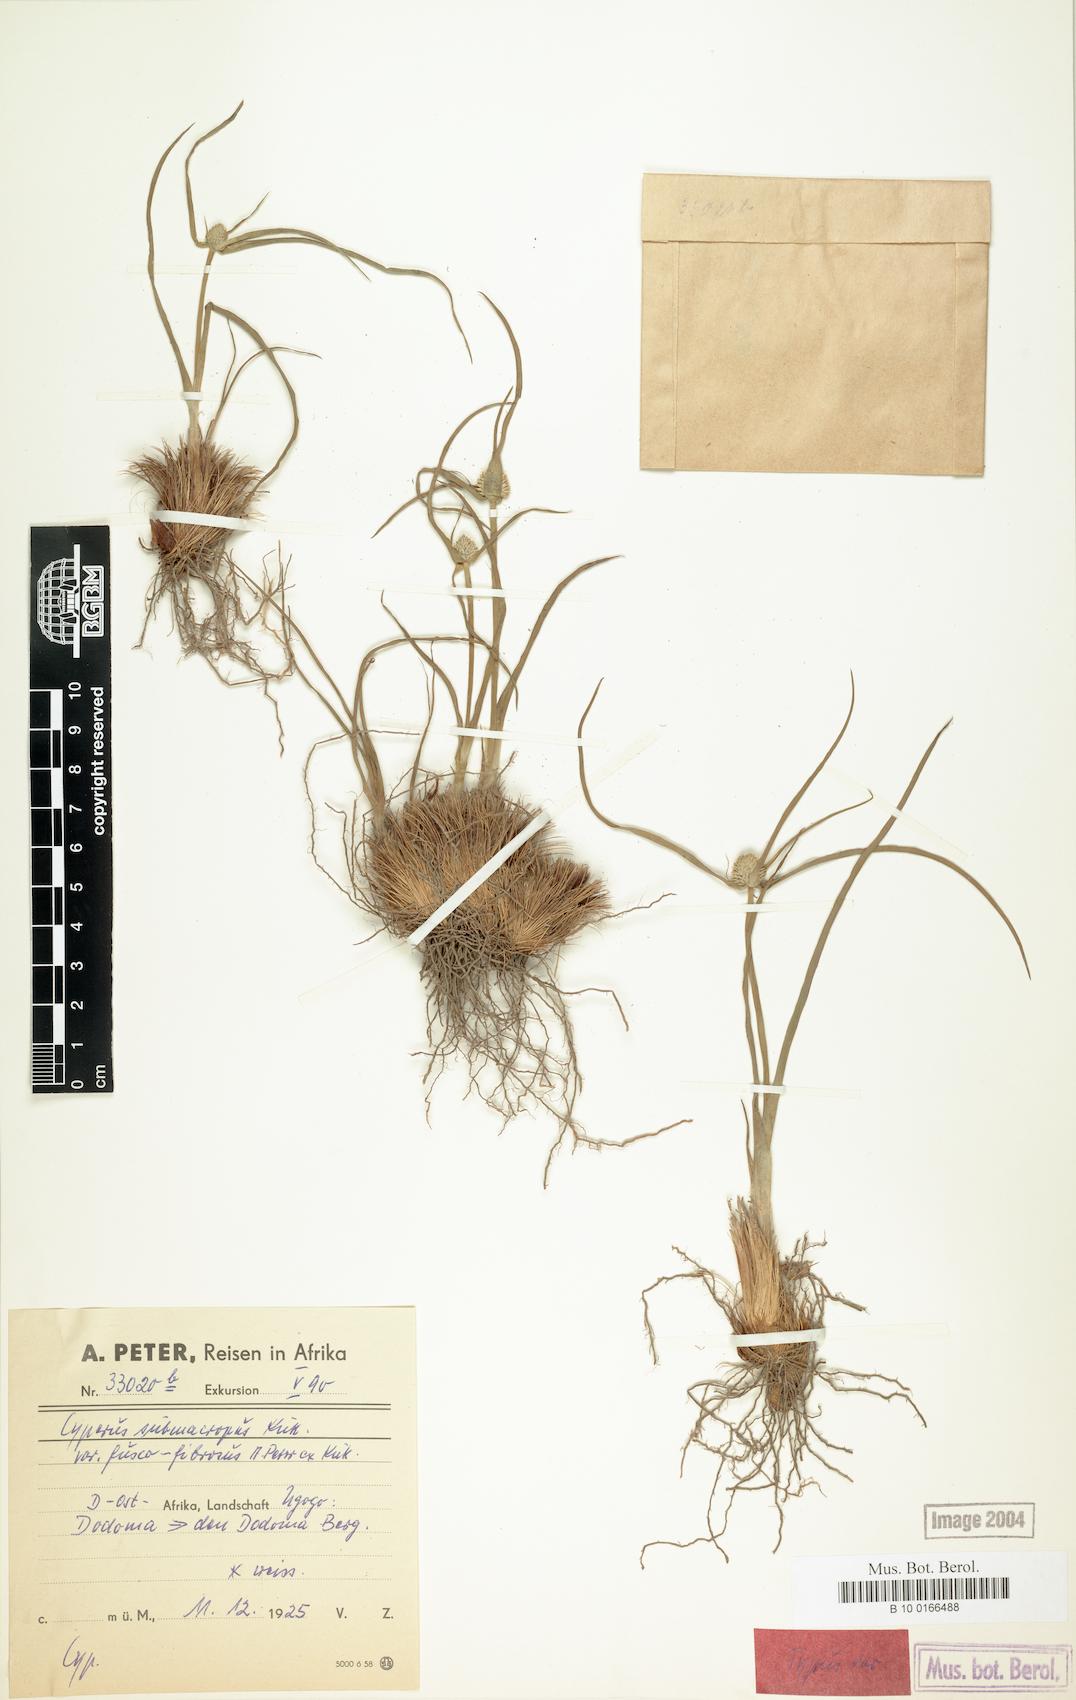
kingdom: Plantae
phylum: Tracheophyta
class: Liliopsida
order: Poales
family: Cyperaceae
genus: Cyperus
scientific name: Cyperus mollipes
